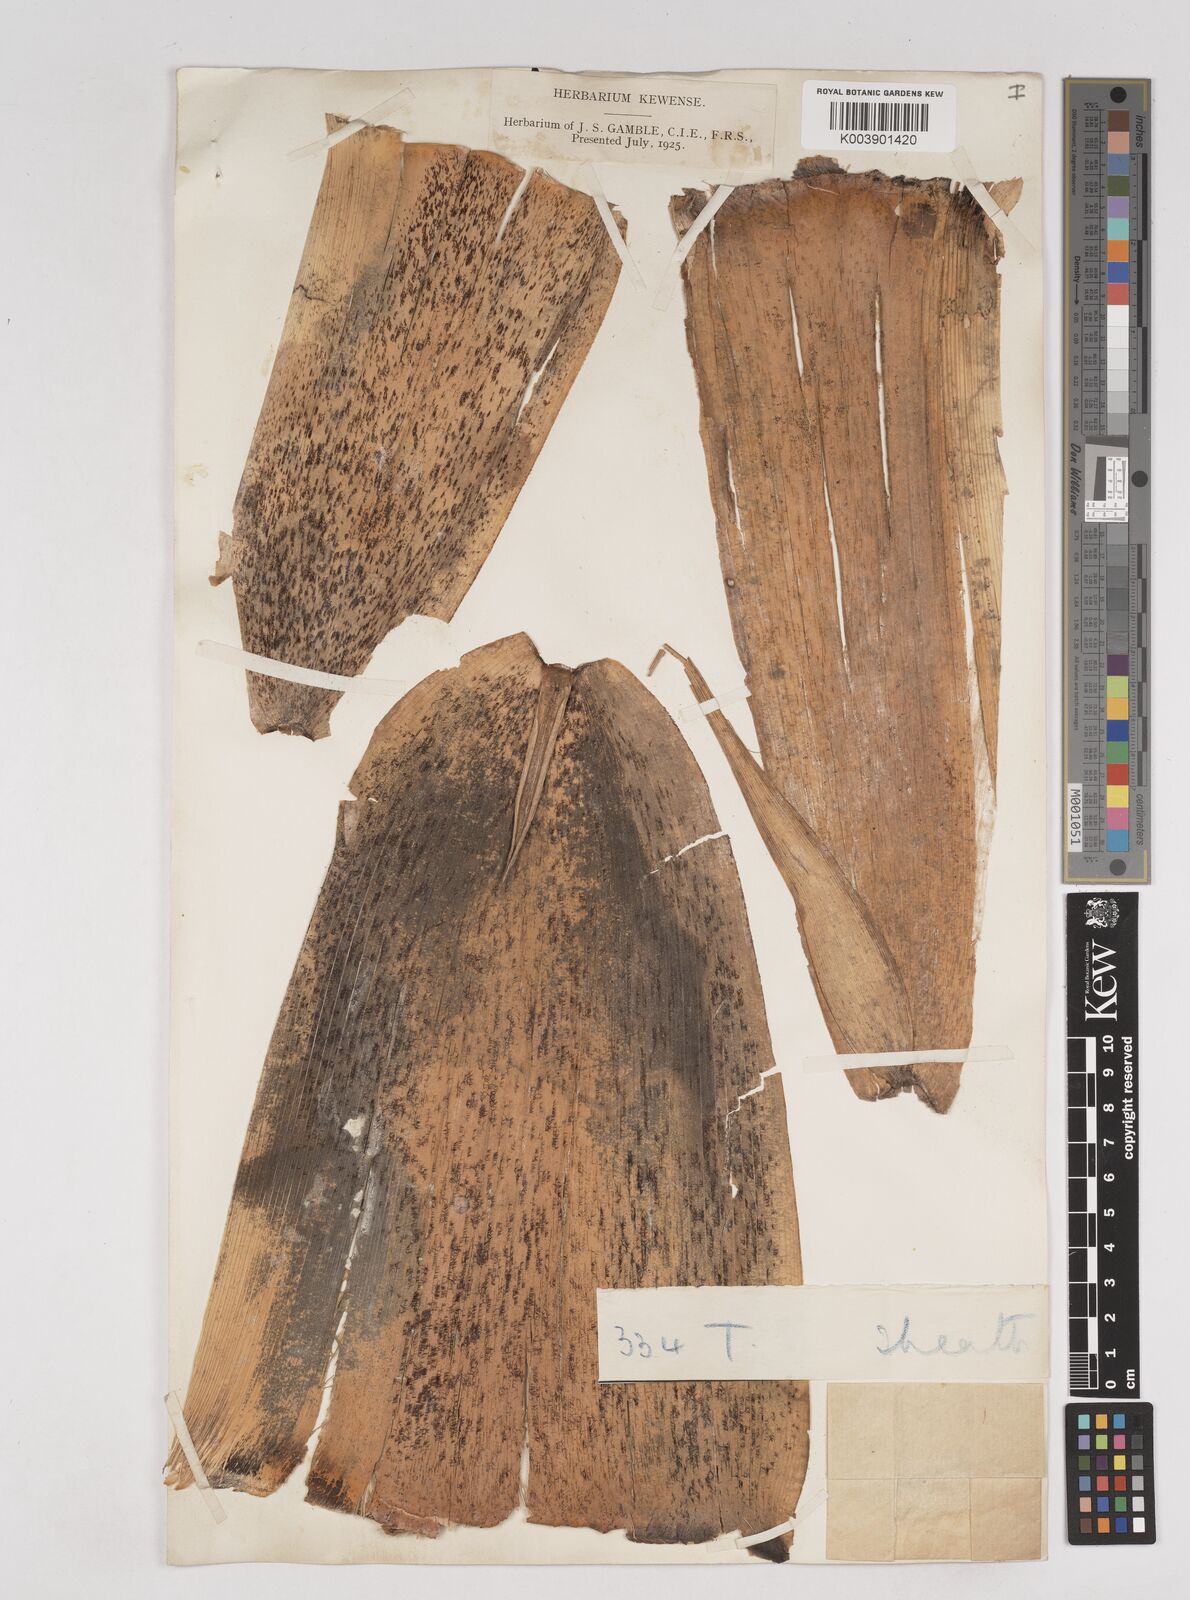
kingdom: Plantae
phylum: Tracheophyta
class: Liliopsida
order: Poales
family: Poaceae
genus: Schizostachyum
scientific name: Schizostachyum tavoyanum
